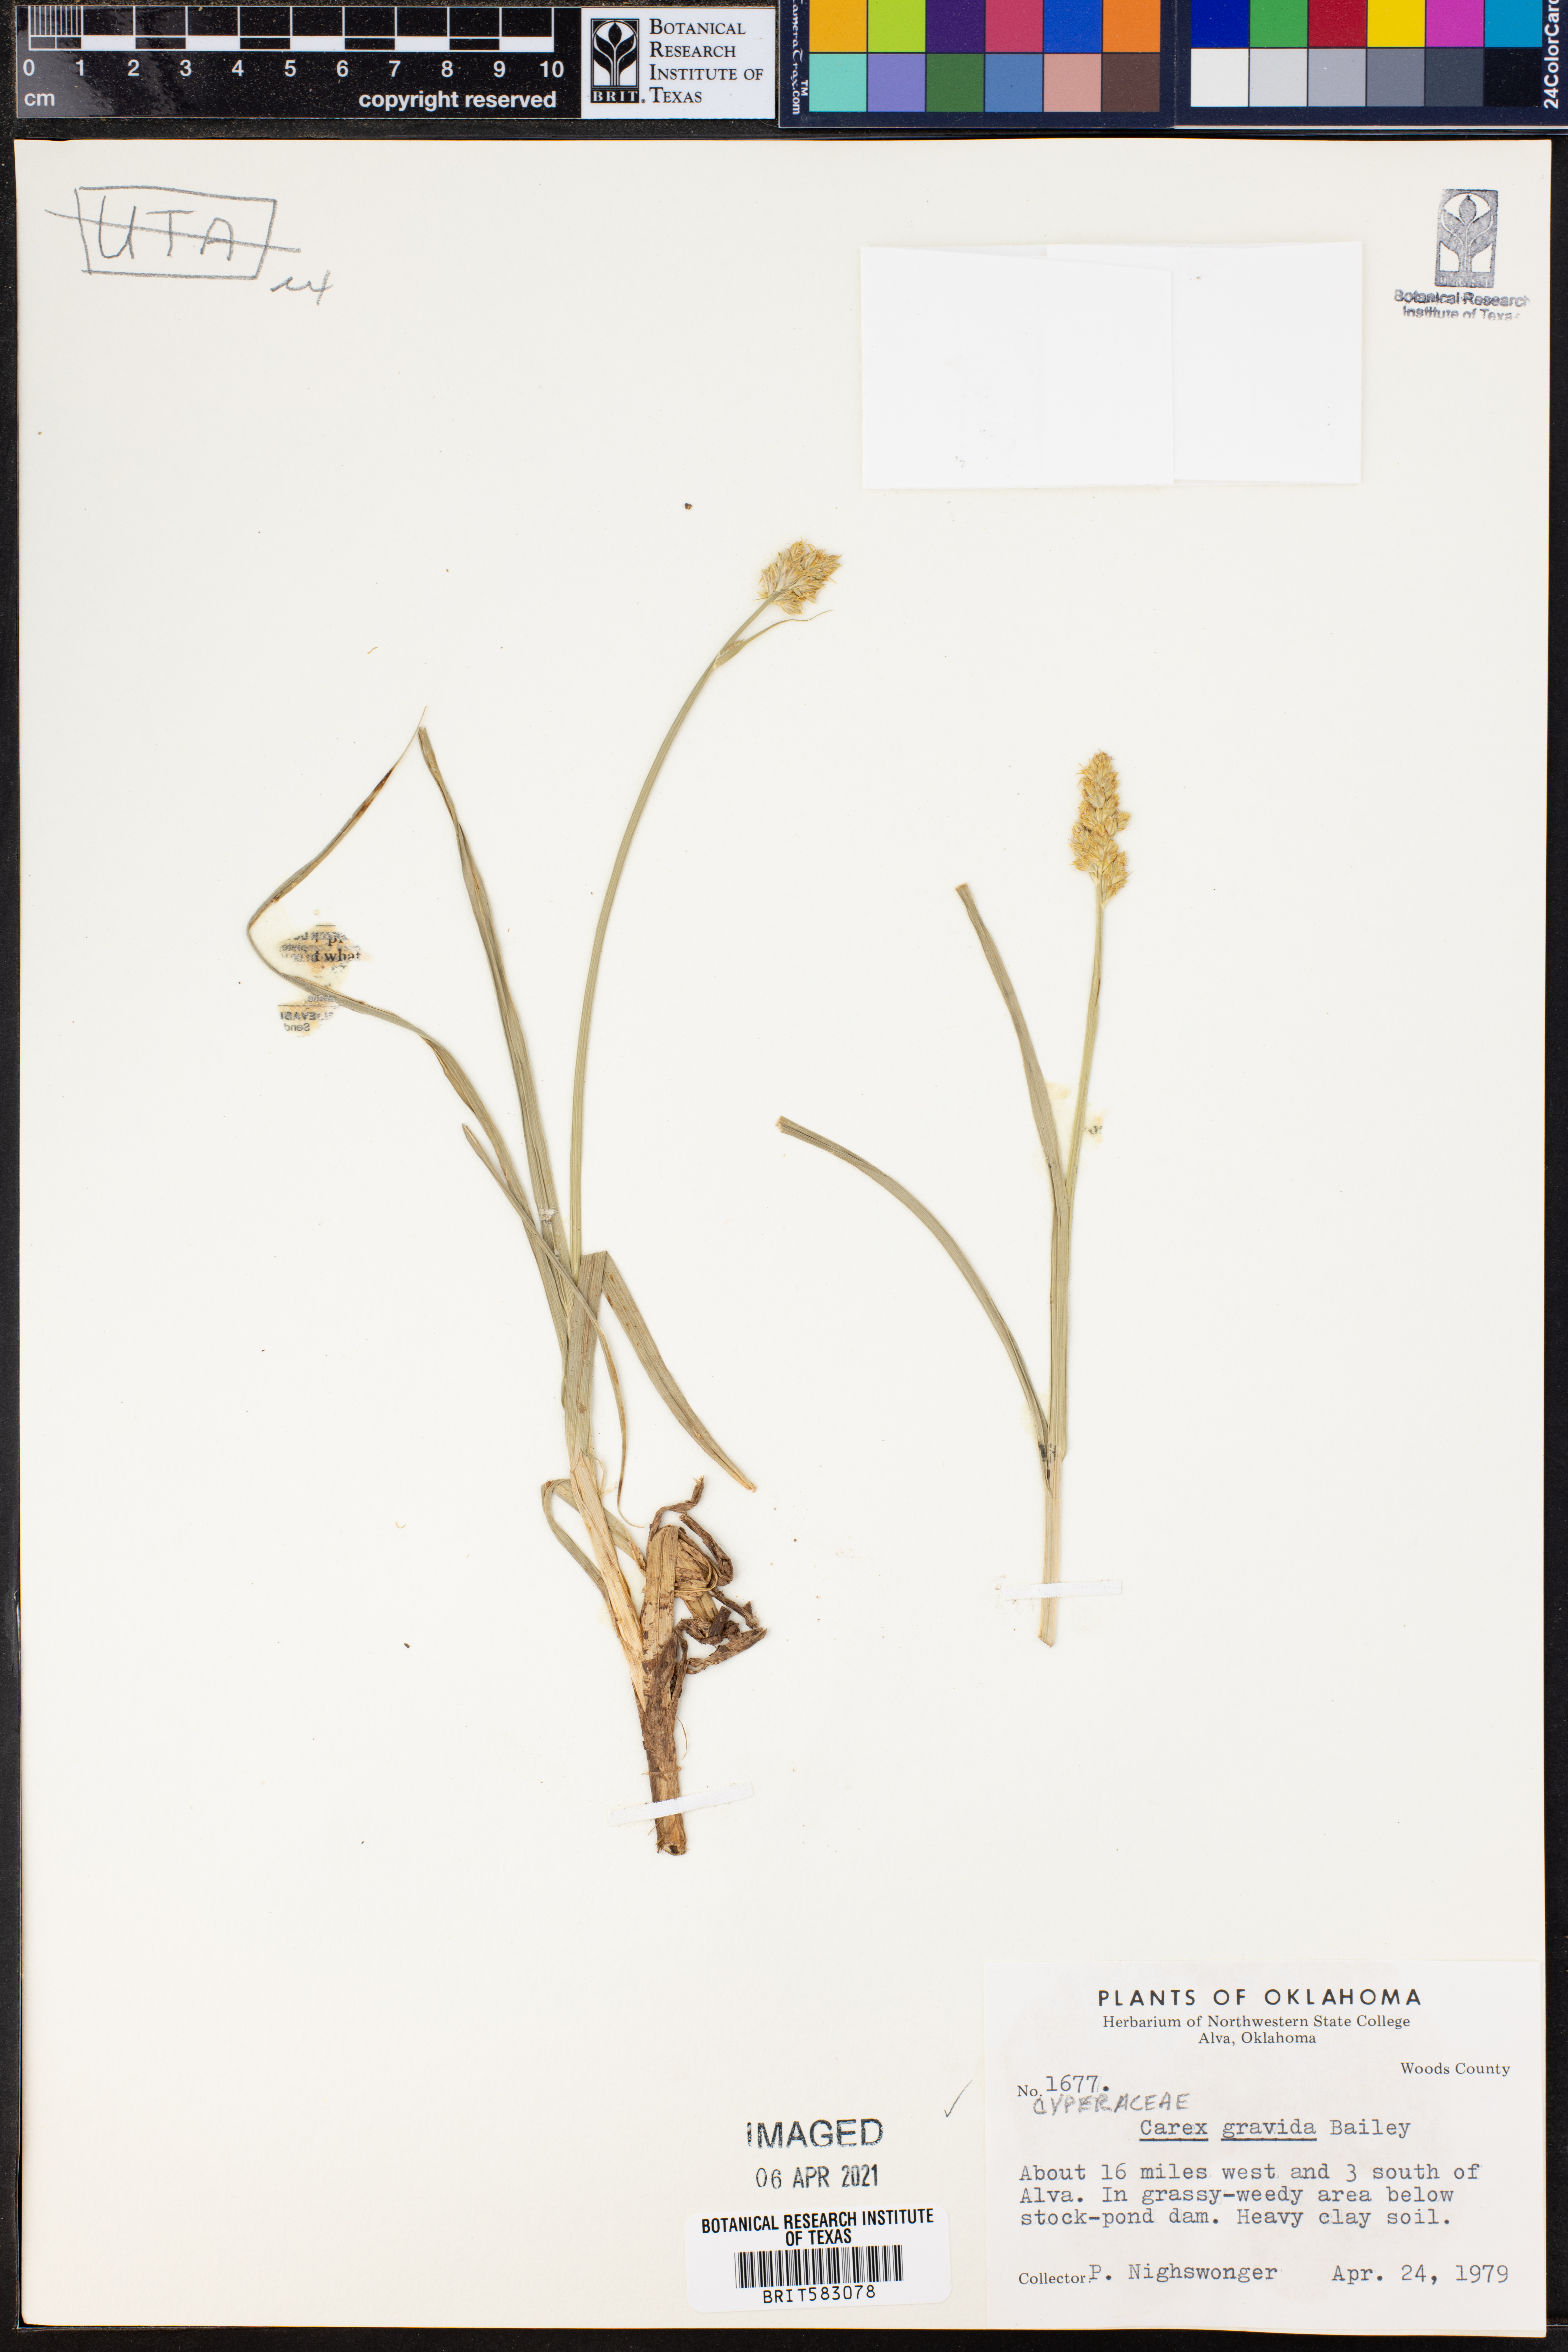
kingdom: Plantae
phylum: Tracheophyta
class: Liliopsida
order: Poales
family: Cyperaceae
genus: Carex
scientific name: Carex gravida
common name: Heavy sedge
